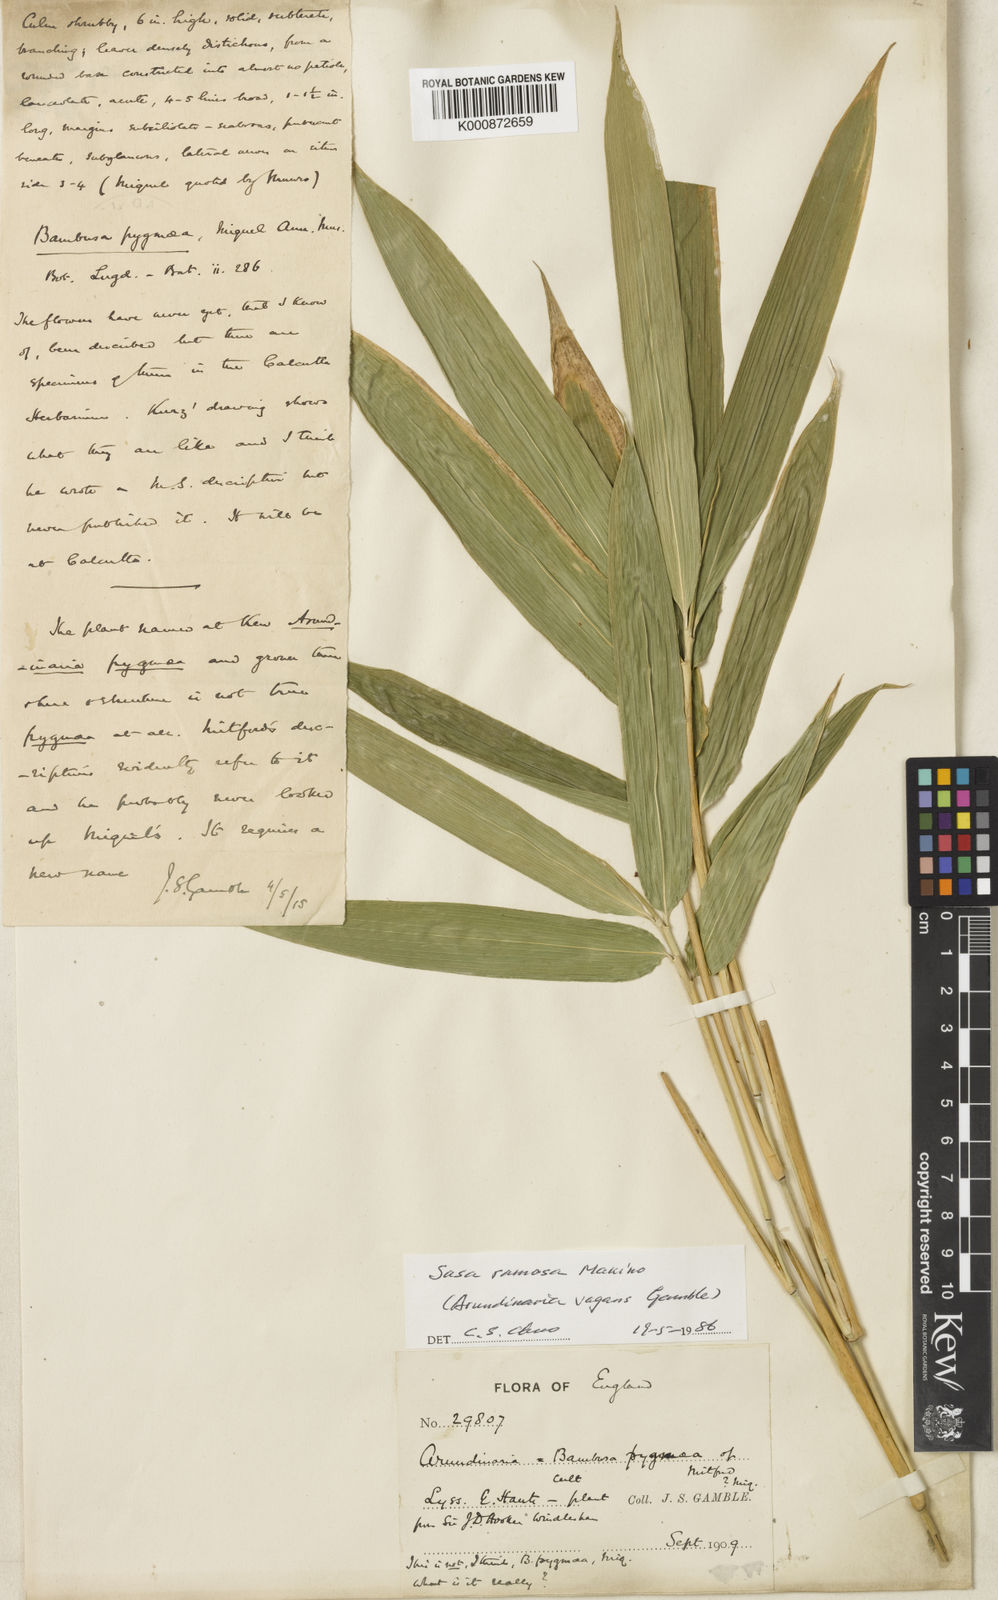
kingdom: Plantae
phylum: Tracheophyta
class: Liliopsida
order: Poales
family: Poaceae
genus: Sasa
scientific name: Sasa
